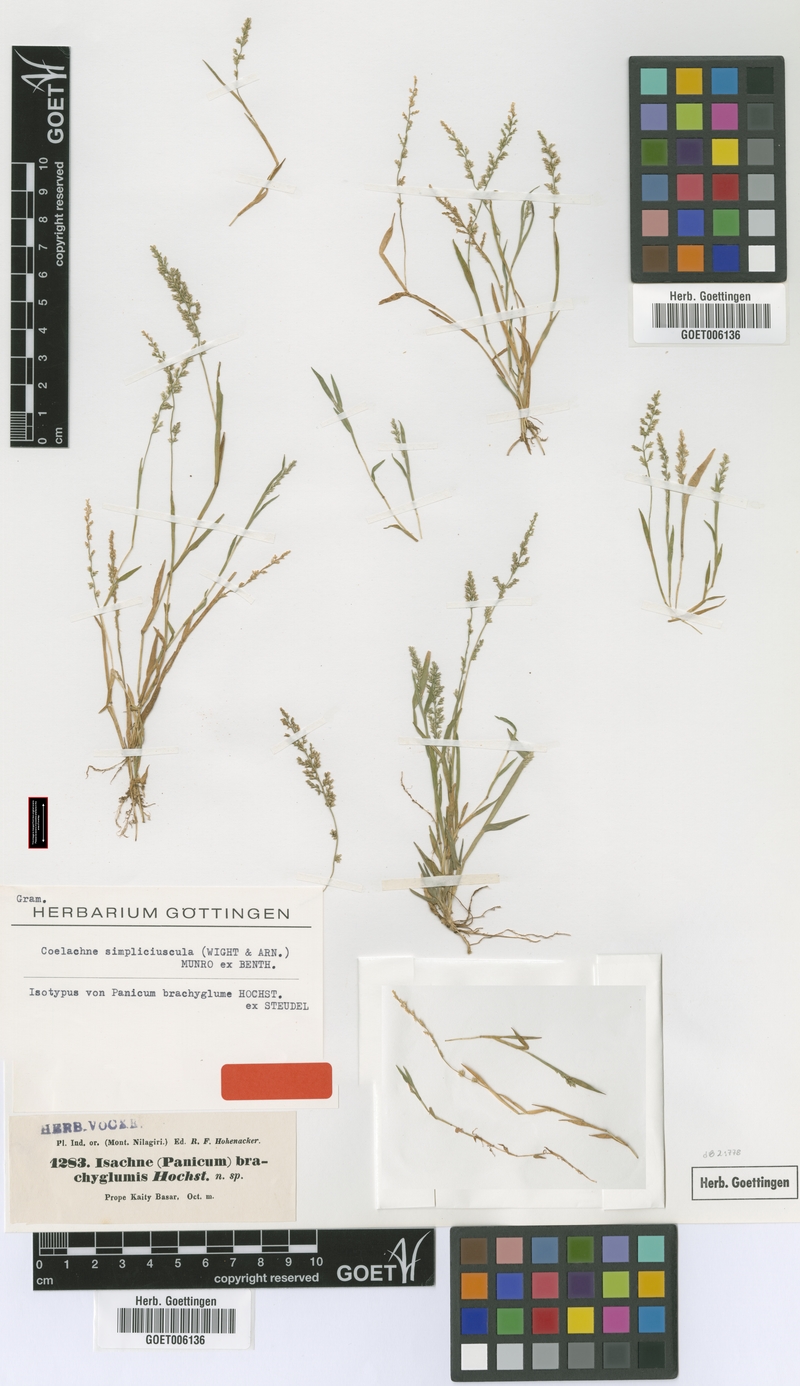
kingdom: Plantae
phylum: Tracheophyta
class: Liliopsida
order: Poales
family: Poaceae
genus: Coelachne
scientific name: Coelachne simpliciuscula
